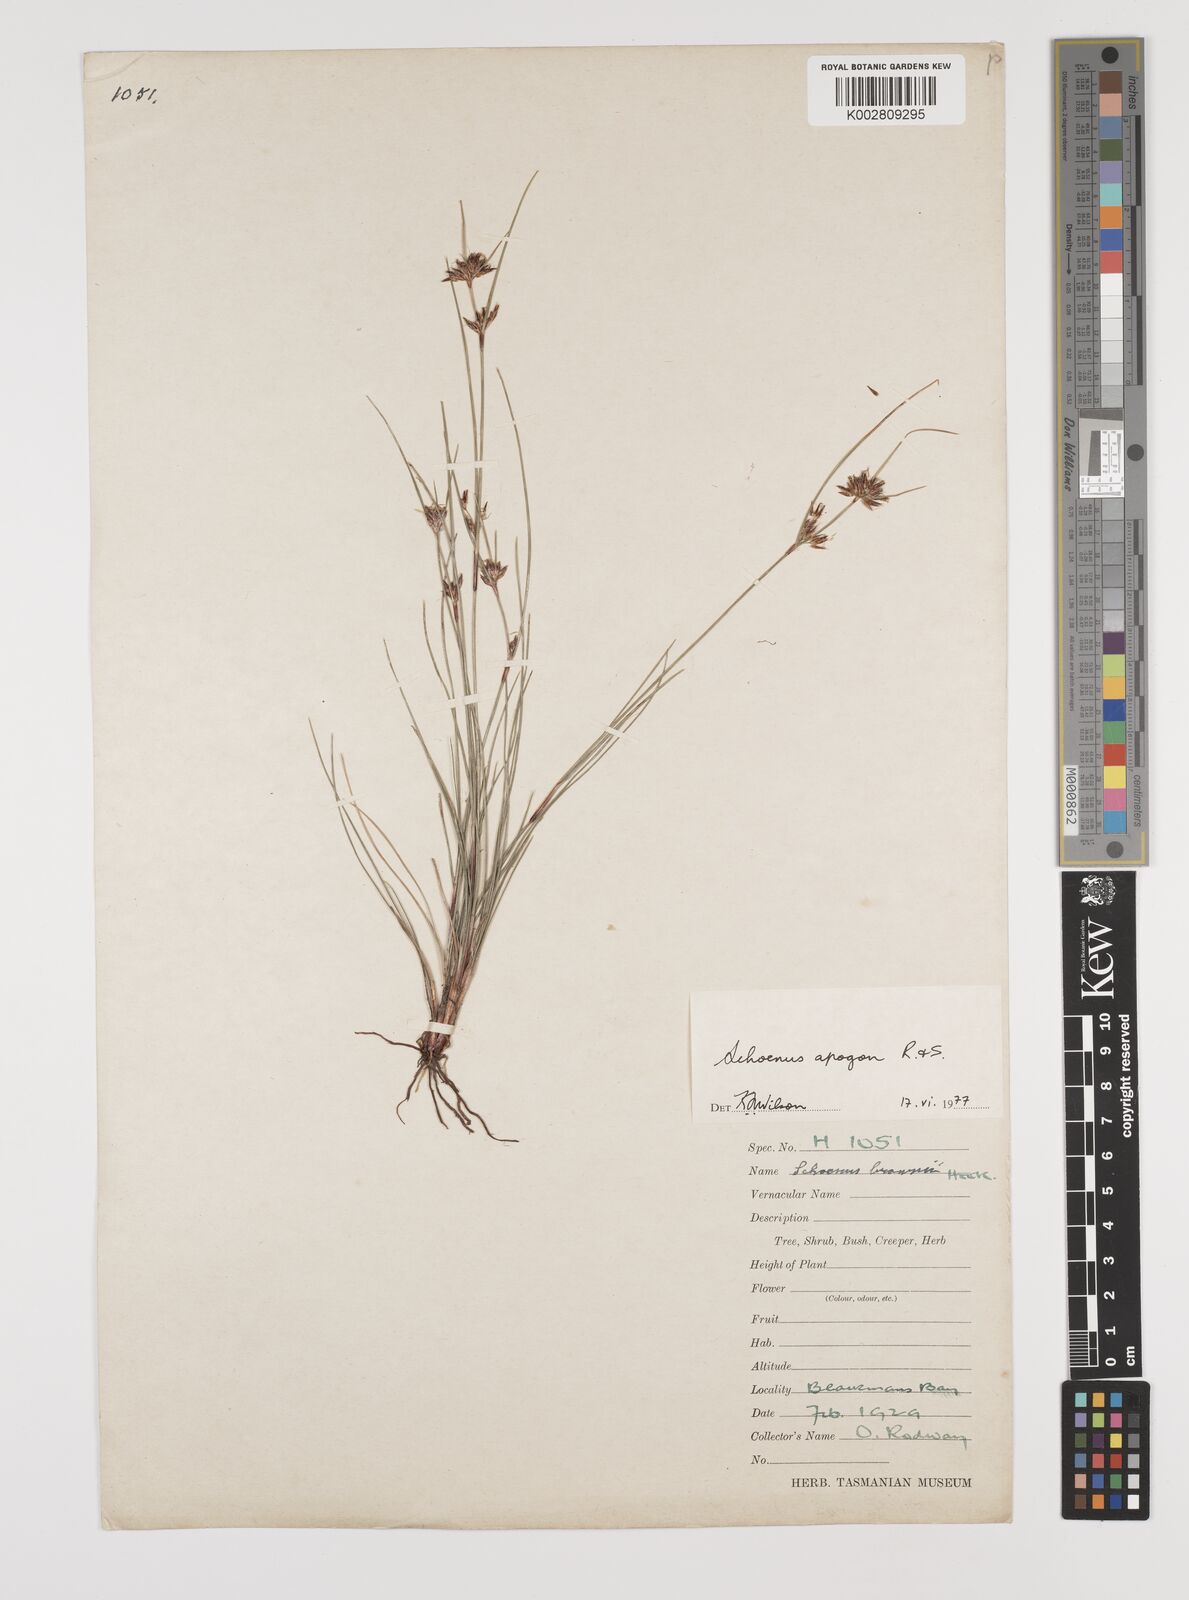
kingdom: Plantae
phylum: Tracheophyta
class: Liliopsida
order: Poales
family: Cyperaceae
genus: Schoenus
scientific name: Schoenus apogon
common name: Smooth bogrush
